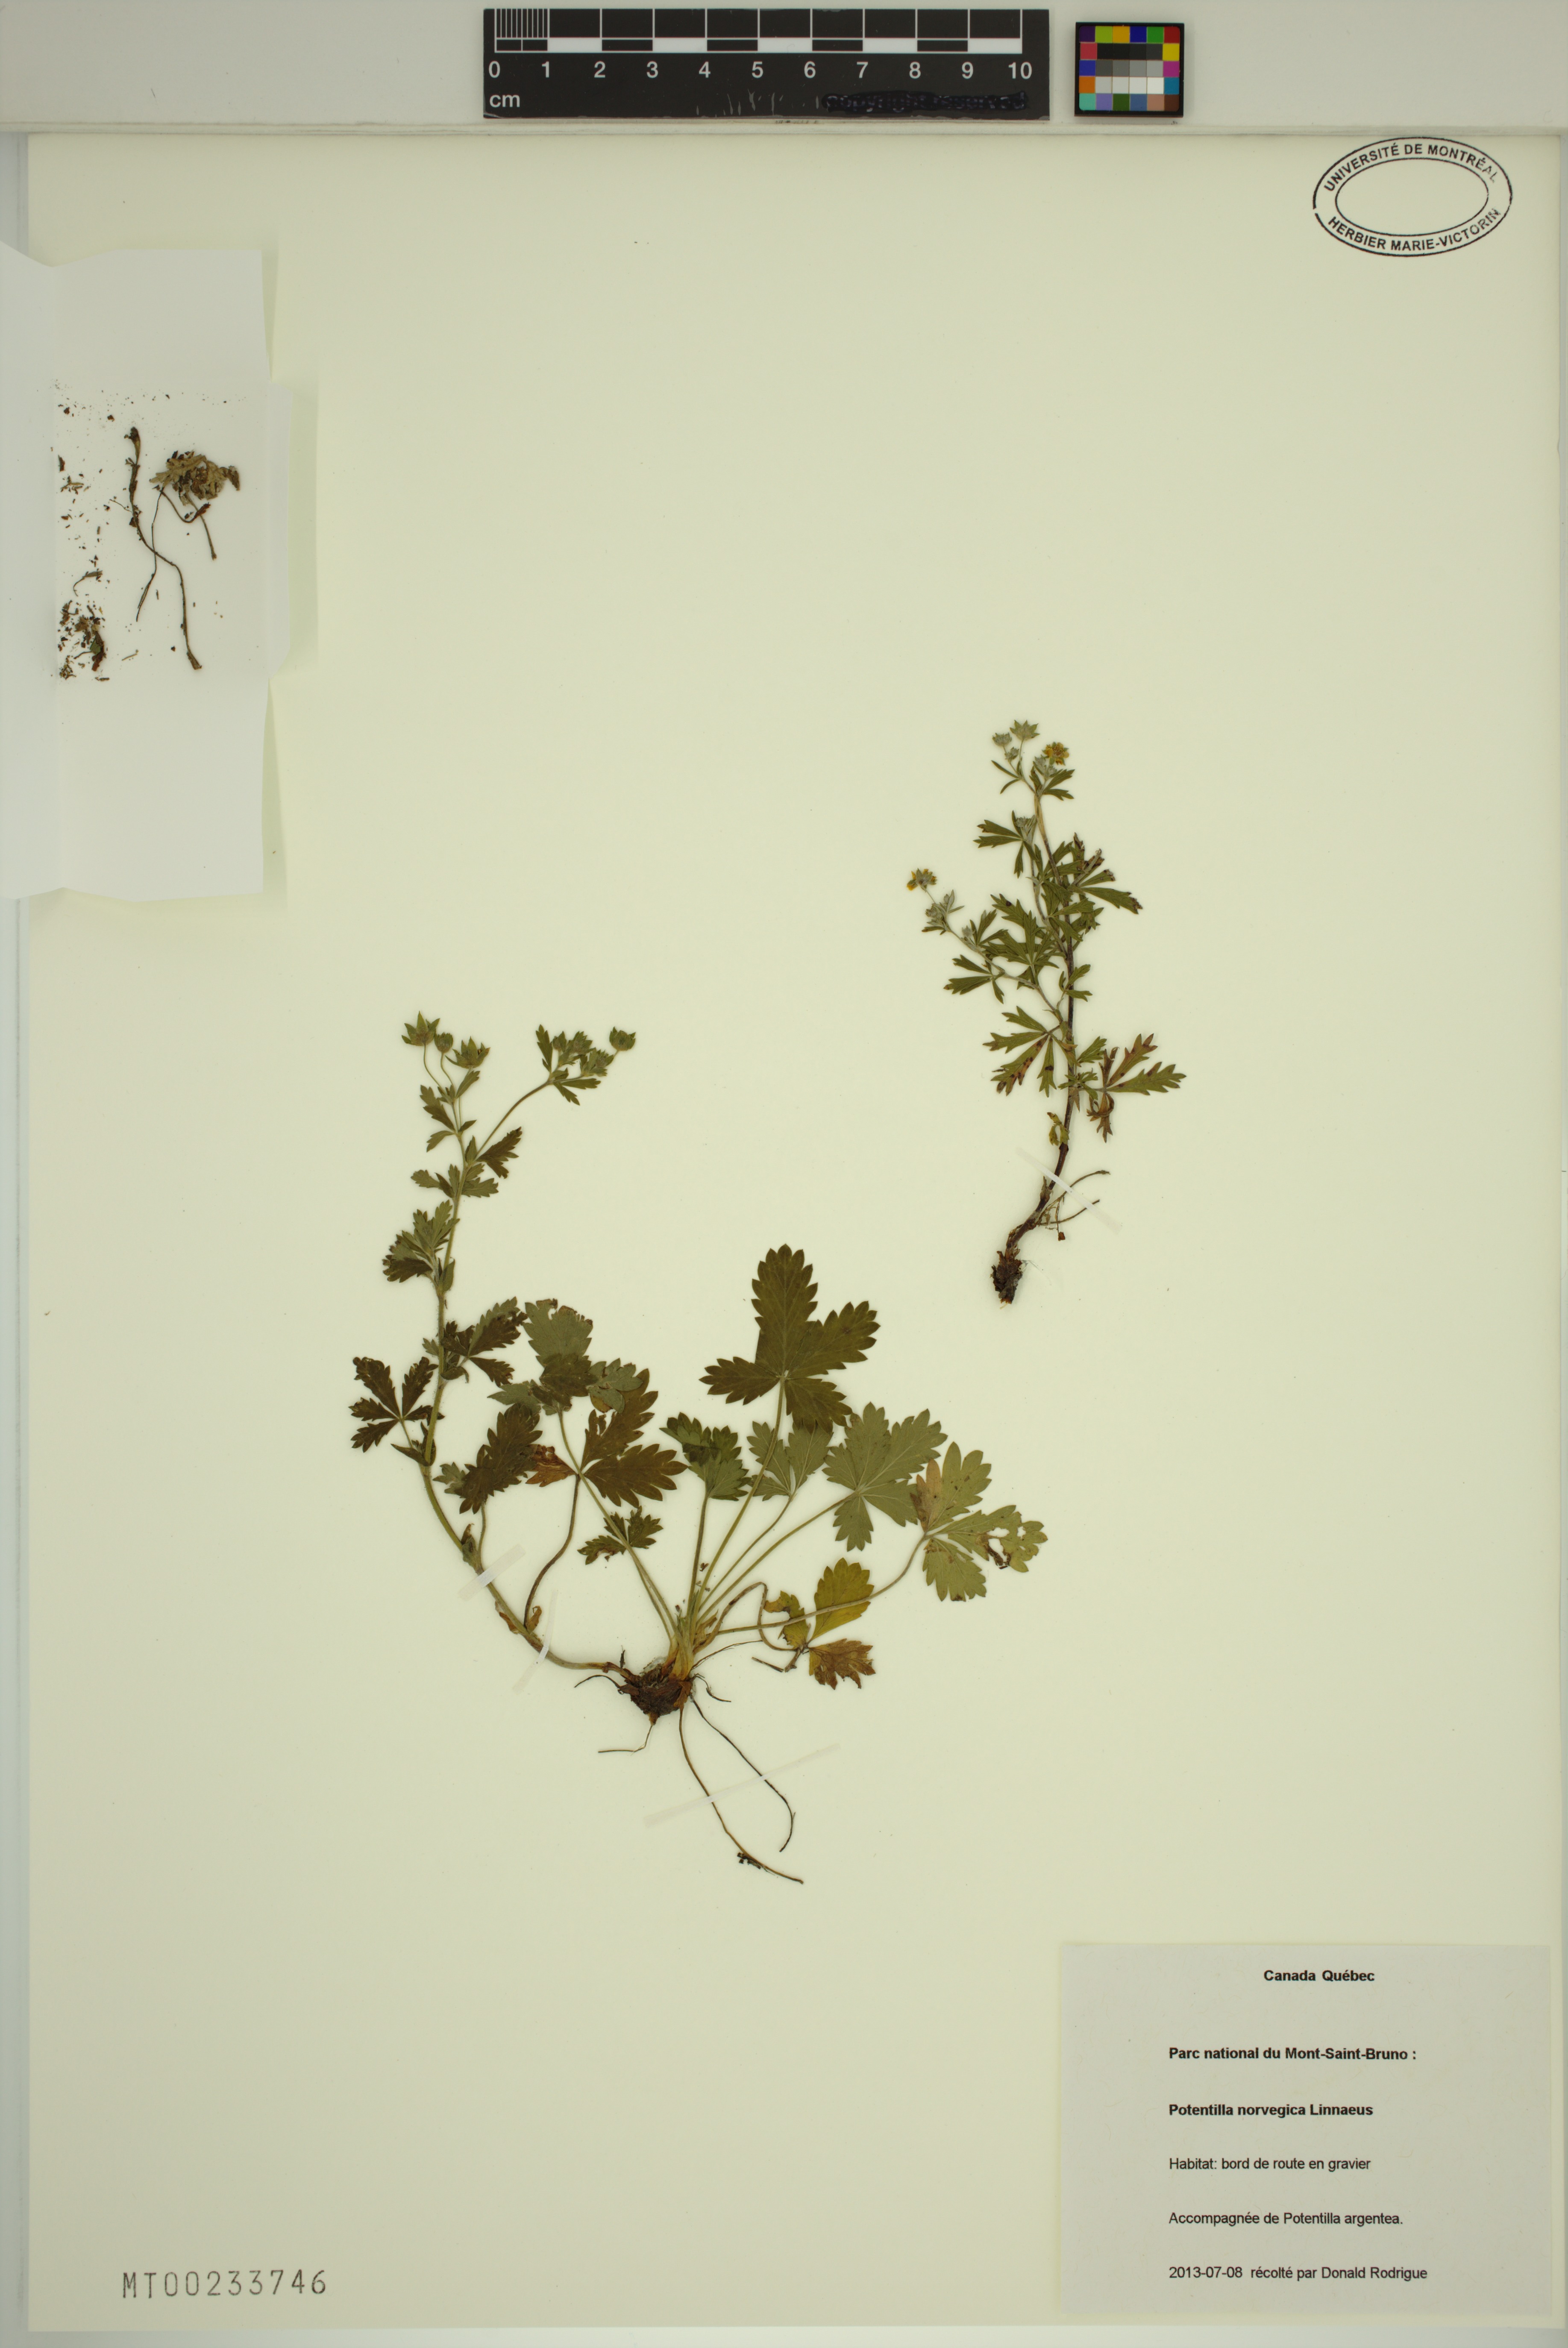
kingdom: Plantae
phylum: Tracheophyta
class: Magnoliopsida
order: Rosales
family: Rosaceae
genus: Potentilla
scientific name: Potentilla norvegica
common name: Ternate-leaved cinquefoil
